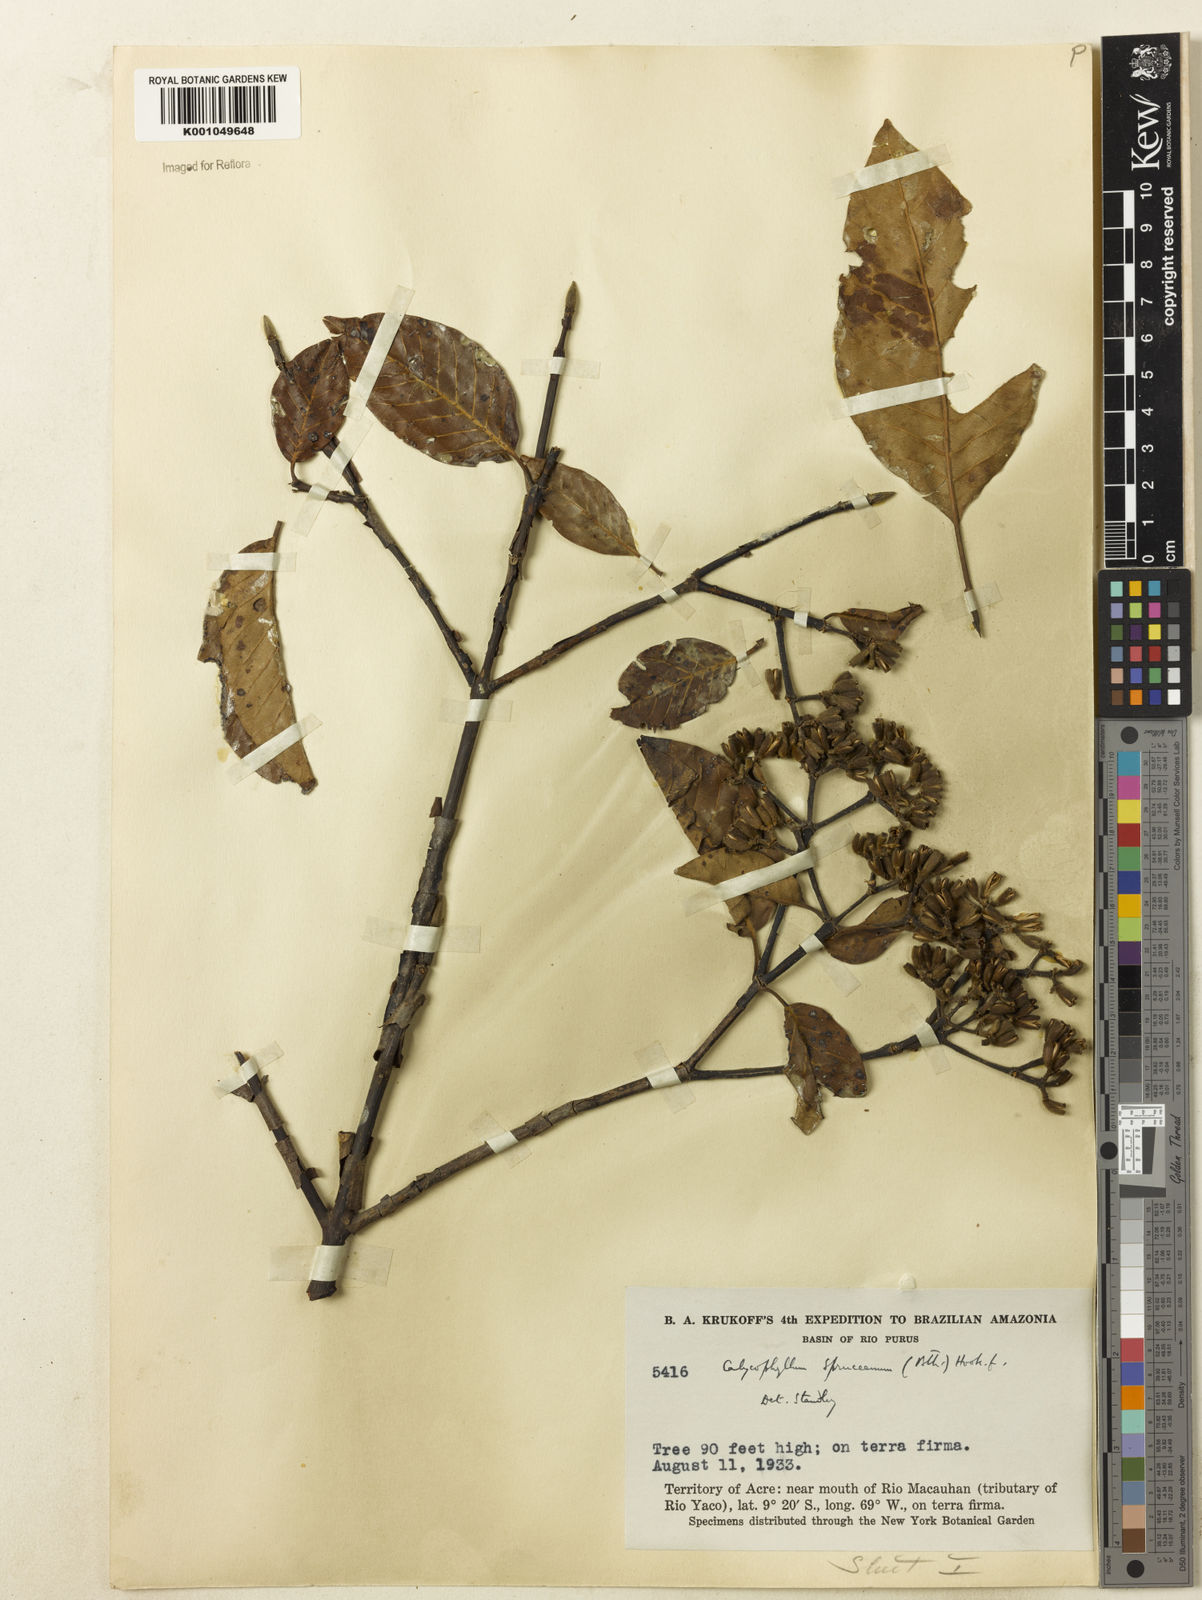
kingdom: Plantae
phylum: Tracheophyta
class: Magnoliopsida
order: Gentianales
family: Rubiaceae
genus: Calycophyllum
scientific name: Calycophyllum spruceanum
